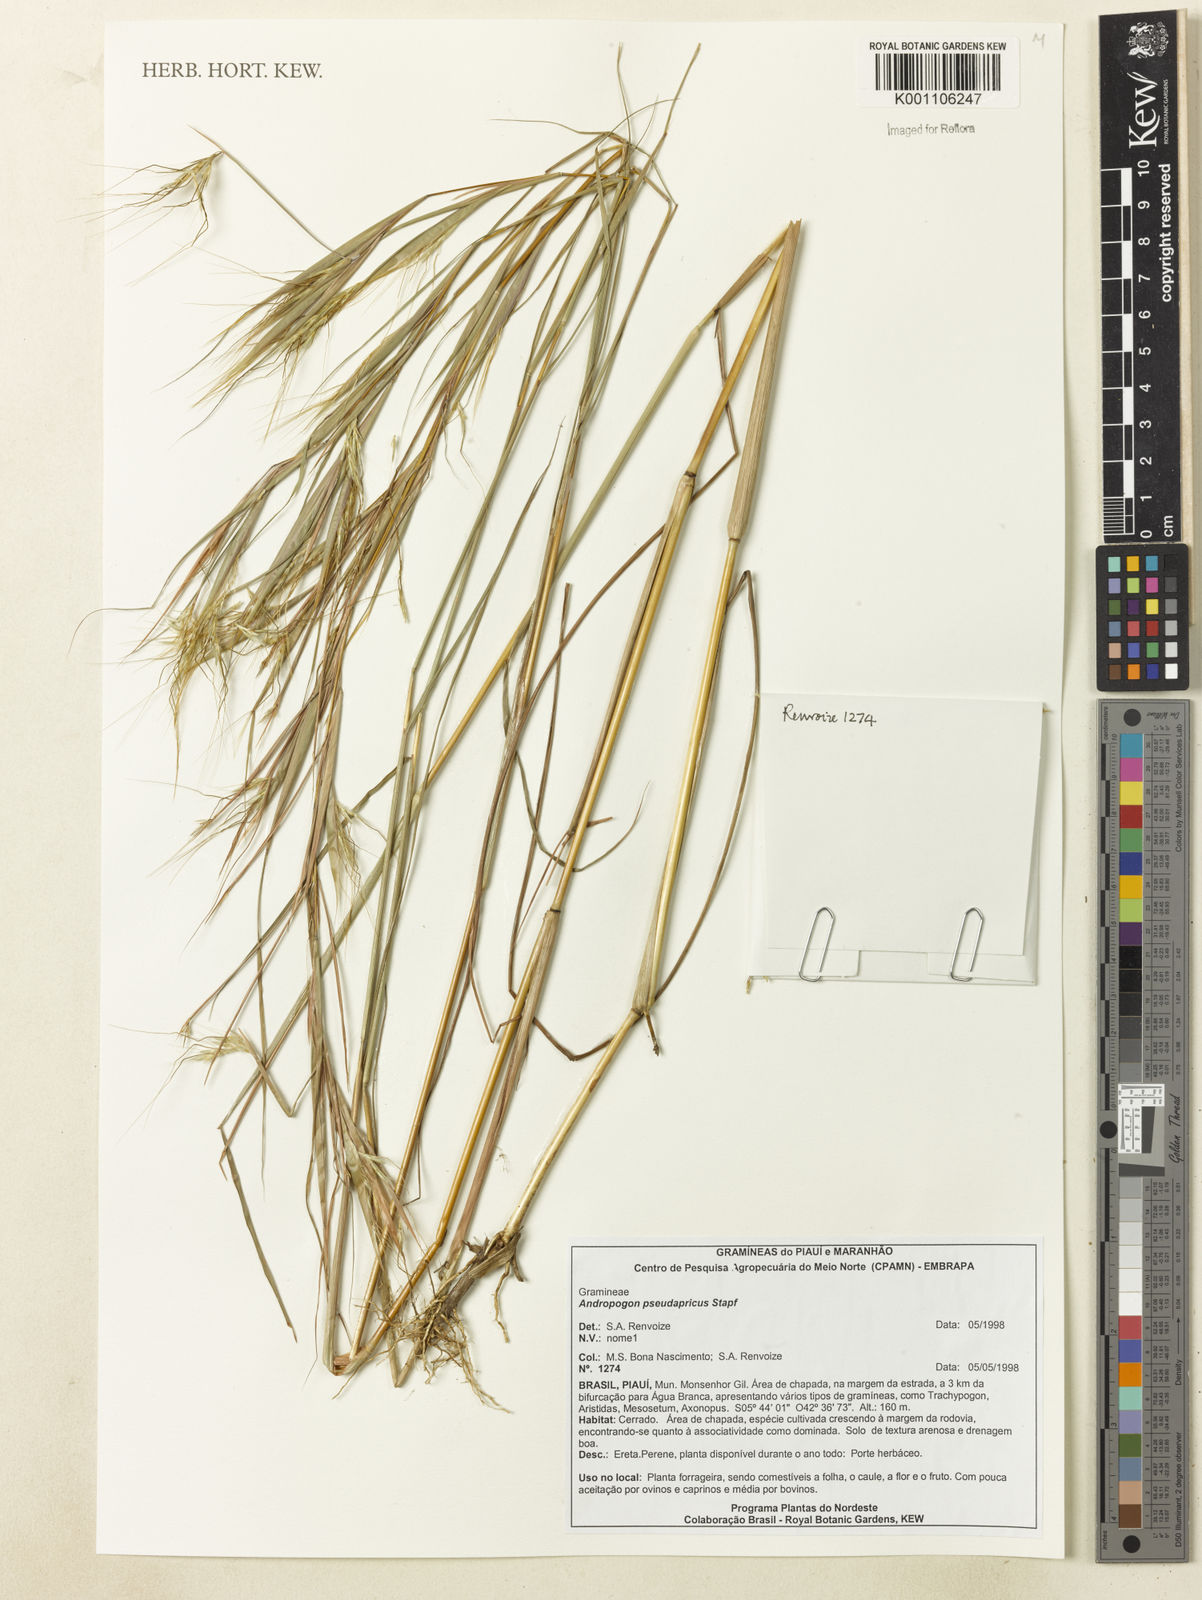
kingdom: Plantae
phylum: Tracheophyta
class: Liliopsida
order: Poales
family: Poaceae
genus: Andropogon
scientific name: Andropogon pseudapricus
